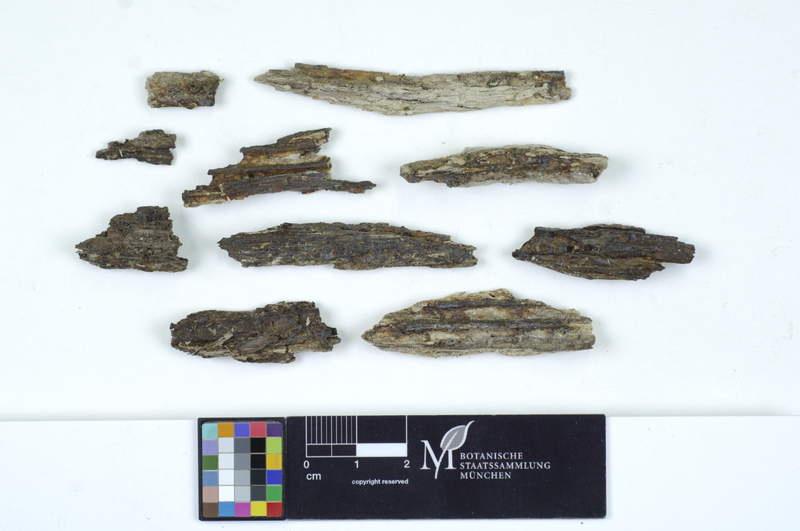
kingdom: Plantae
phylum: Tracheophyta
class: Magnoliopsida
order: Lamiales
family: Oleaceae
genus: Fraxinus
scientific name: Fraxinus
